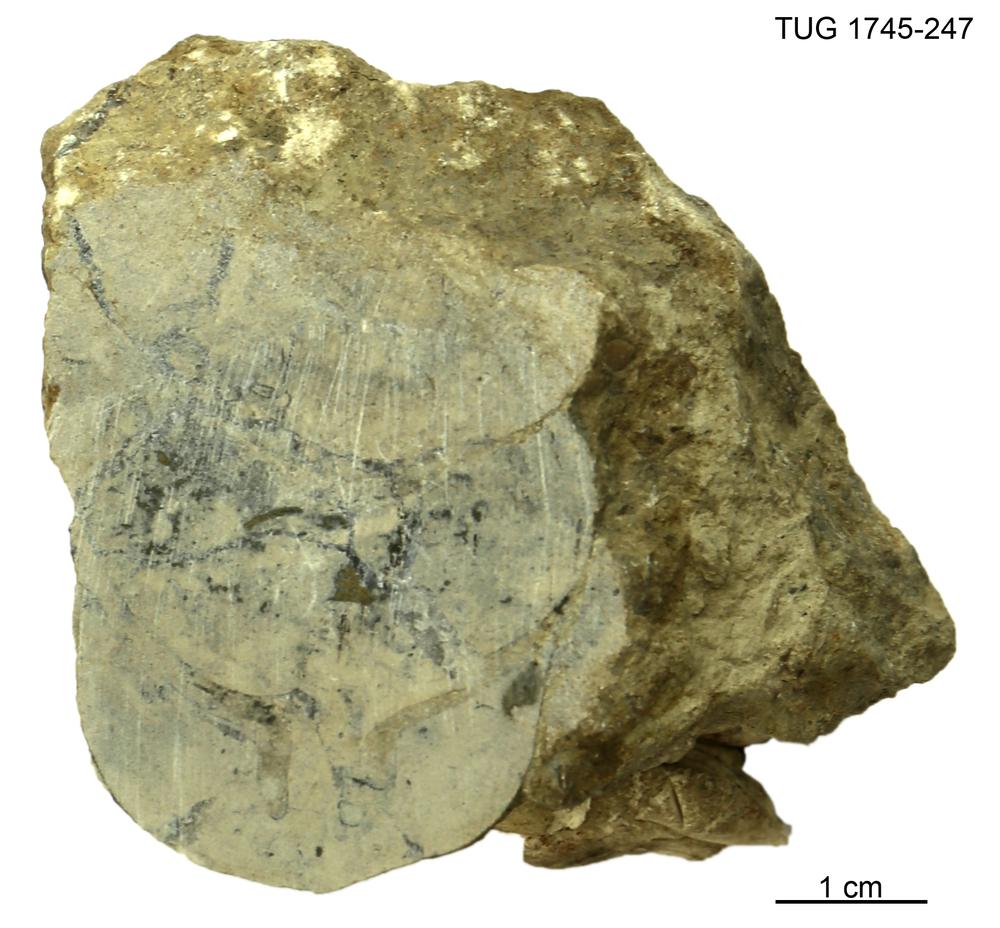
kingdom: Animalia
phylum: Mollusca
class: Cephalopoda
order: Orthocerida
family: Proteoceratidae
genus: Ephippiorthoceras
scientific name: Ephippiorthoceras
